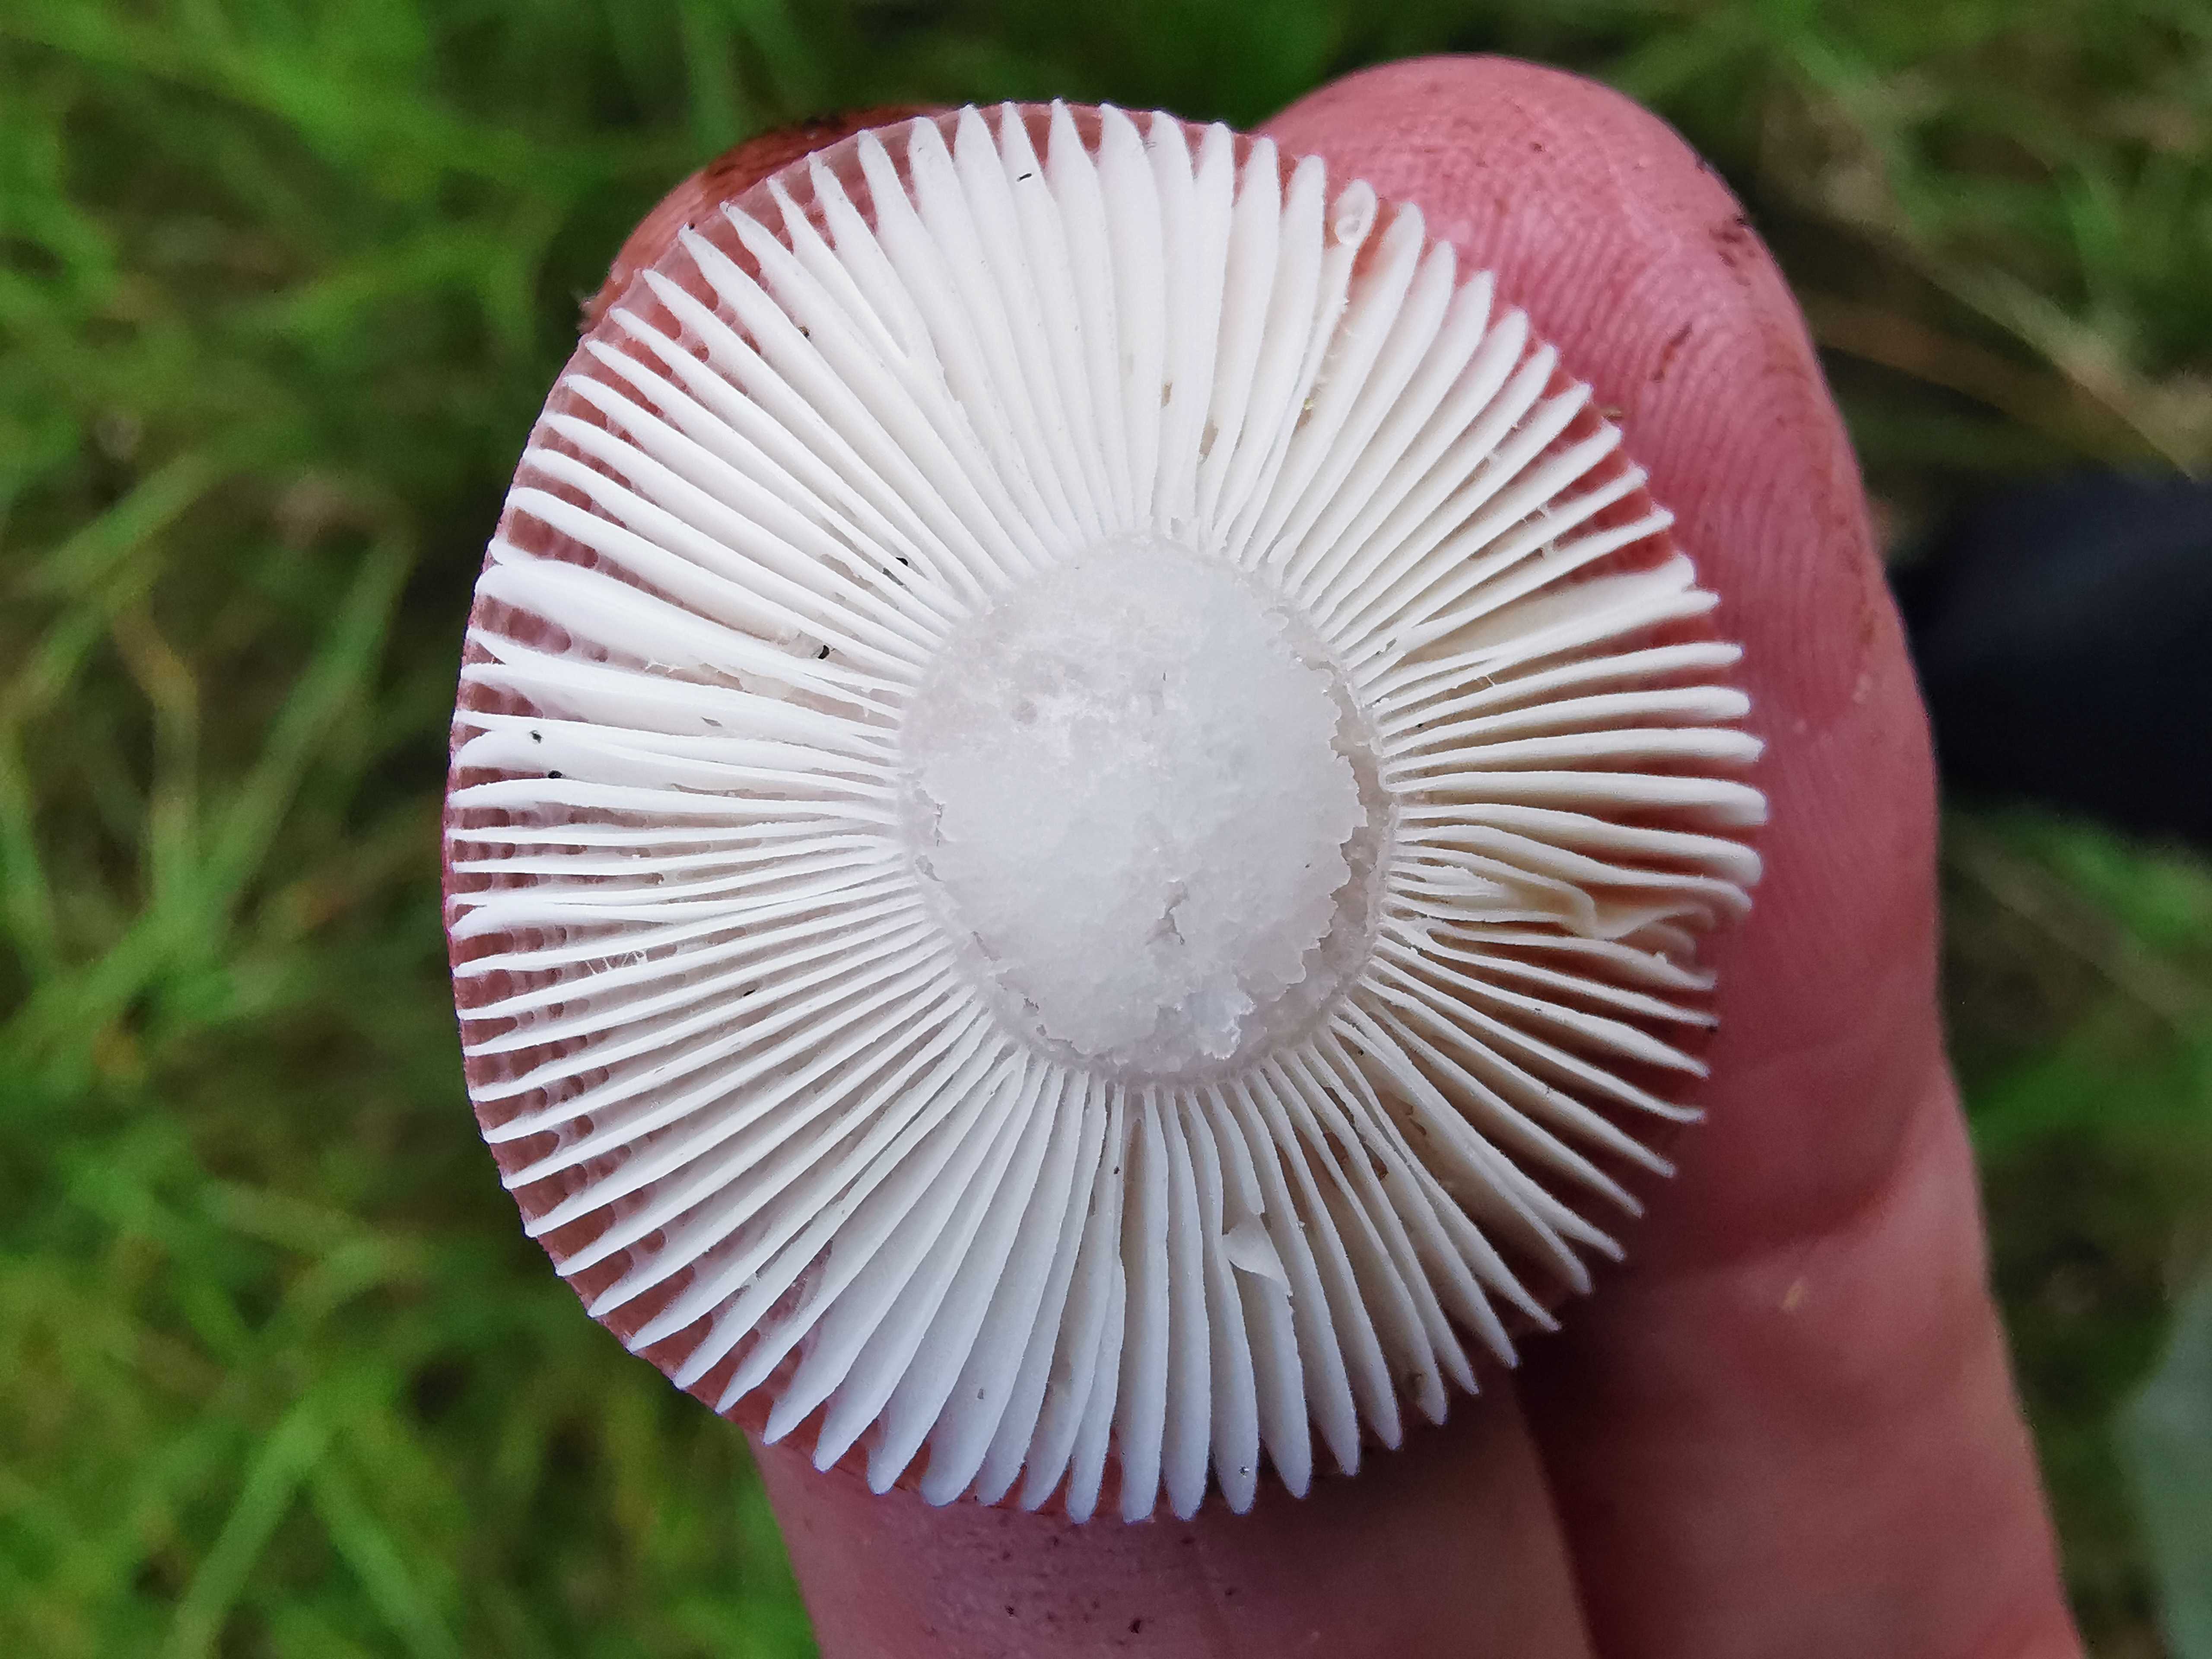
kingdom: Fungi
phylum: Basidiomycota
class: Agaricomycetes
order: Russulales
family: Russulaceae
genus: Russula
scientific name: Russula
